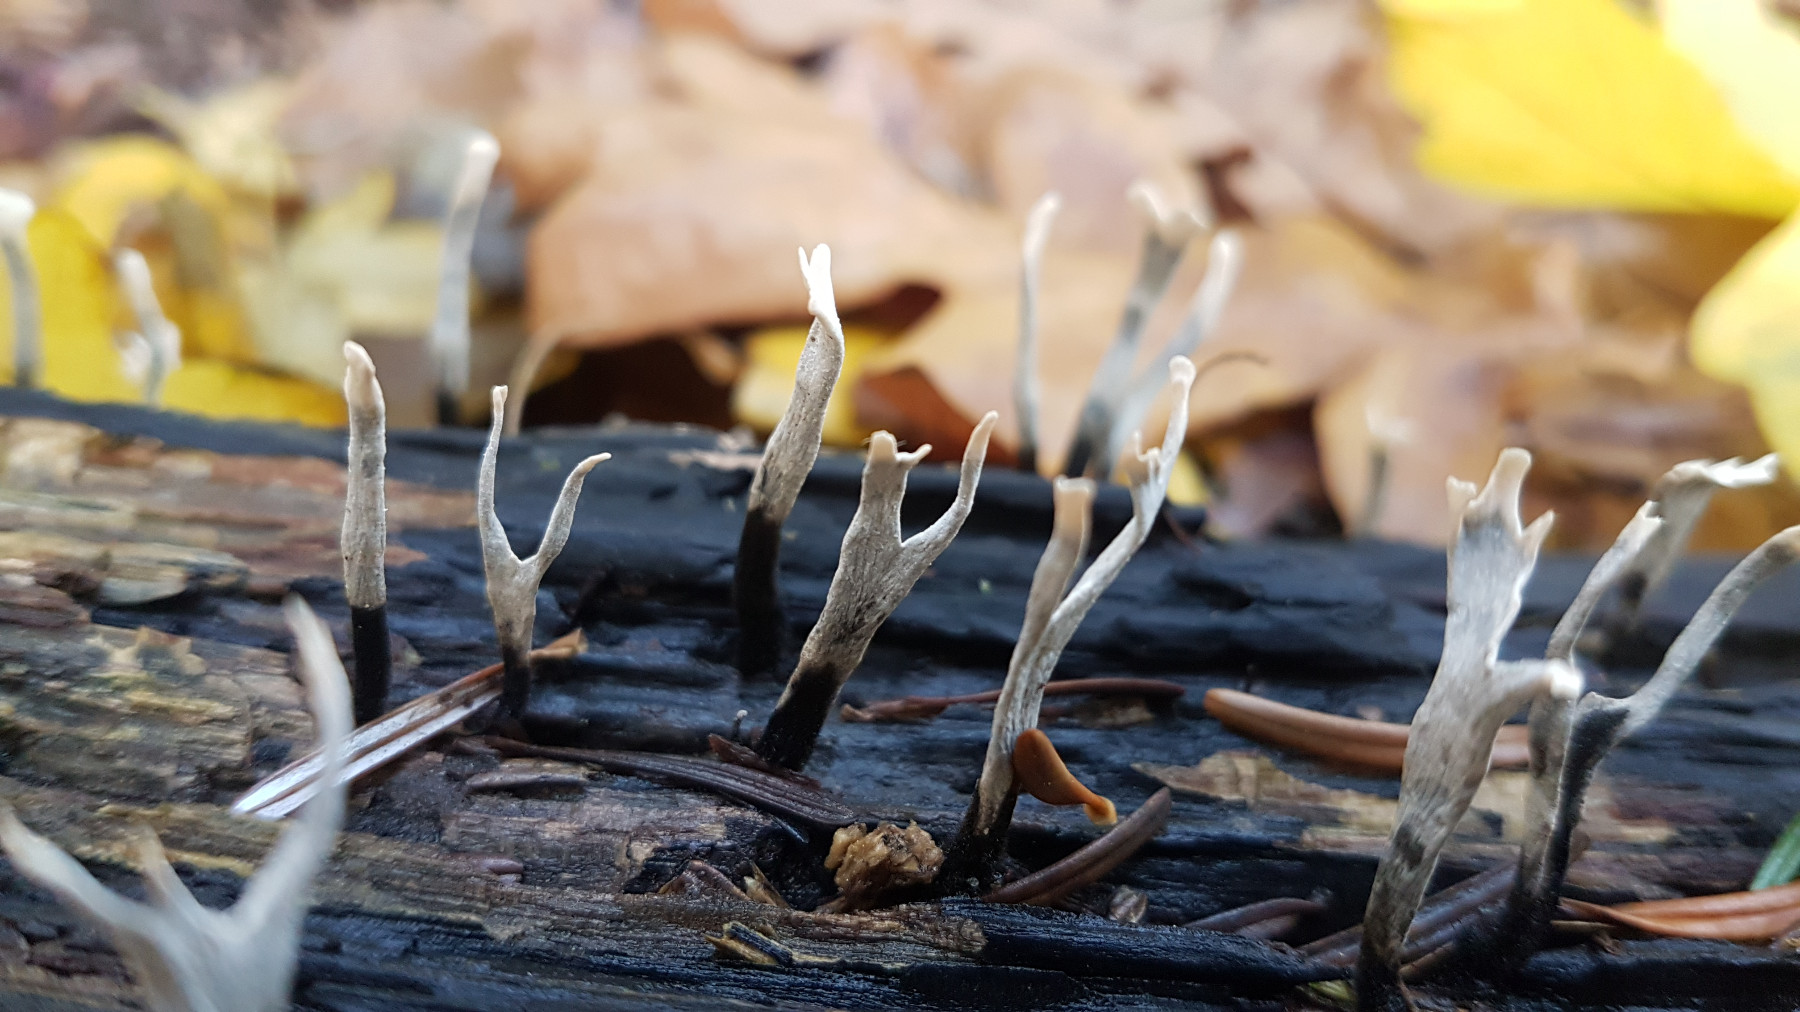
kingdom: Fungi
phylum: Ascomycota
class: Sordariomycetes
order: Xylariales
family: Xylariaceae
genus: Xylaria
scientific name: Xylaria hypoxylon
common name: grenet stødsvamp
